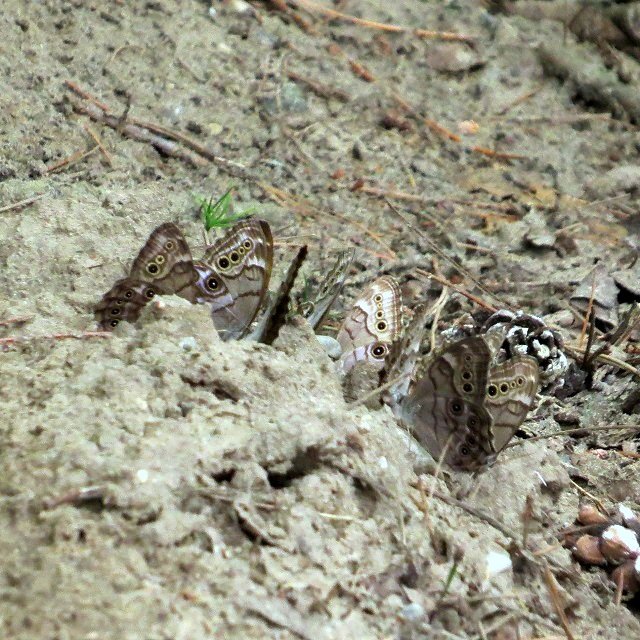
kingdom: Animalia
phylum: Arthropoda
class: Insecta
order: Lepidoptera
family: Nymphalidae
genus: Lethe
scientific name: Lethe anthedon
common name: Northern Pearly-Eye
